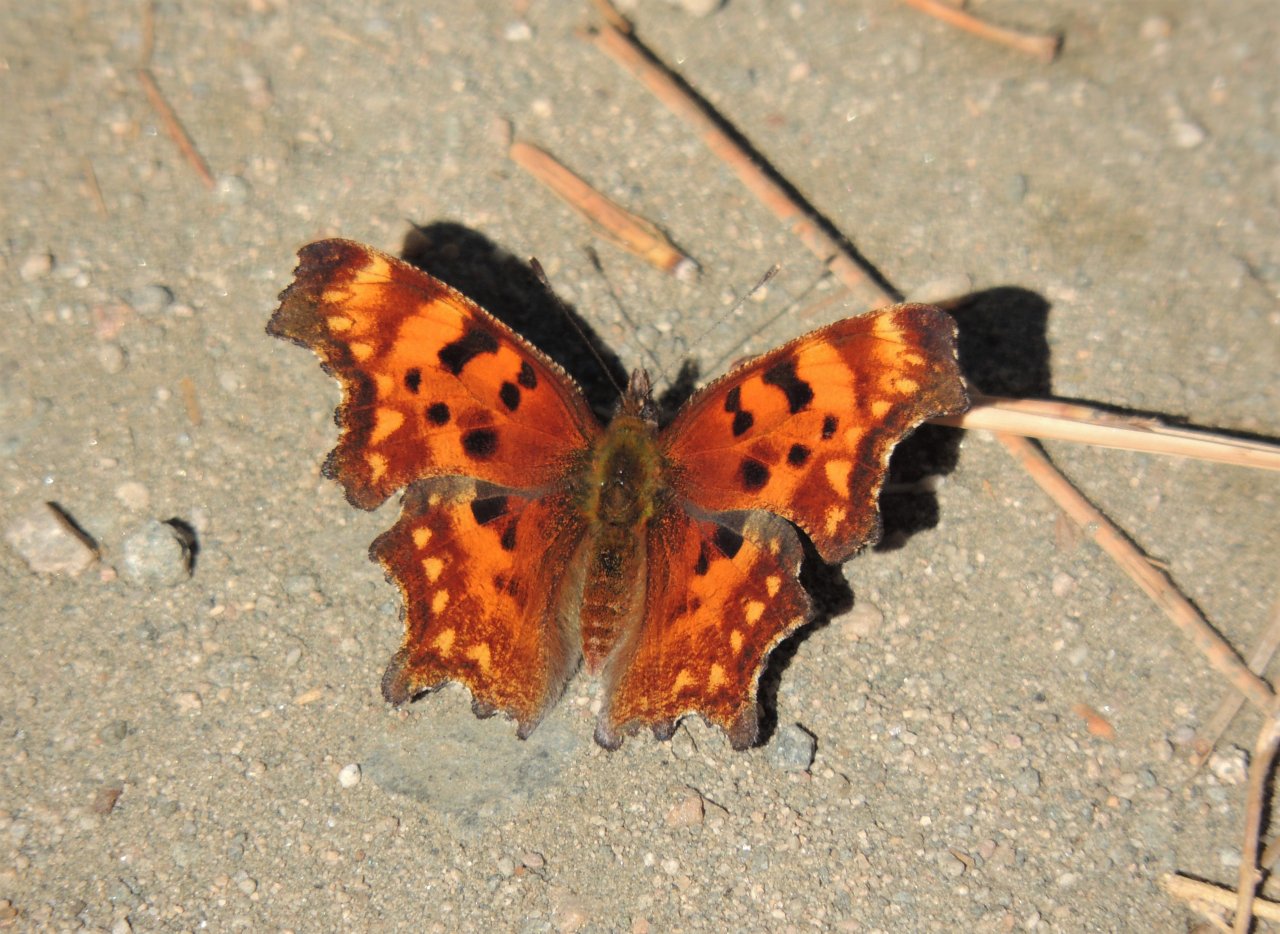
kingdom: Animalia
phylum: Arthropoda
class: Insecta
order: Lepidoptera
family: Nymphalidae
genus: Polygonia
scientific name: Polygonia faunus
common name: Green Comma
